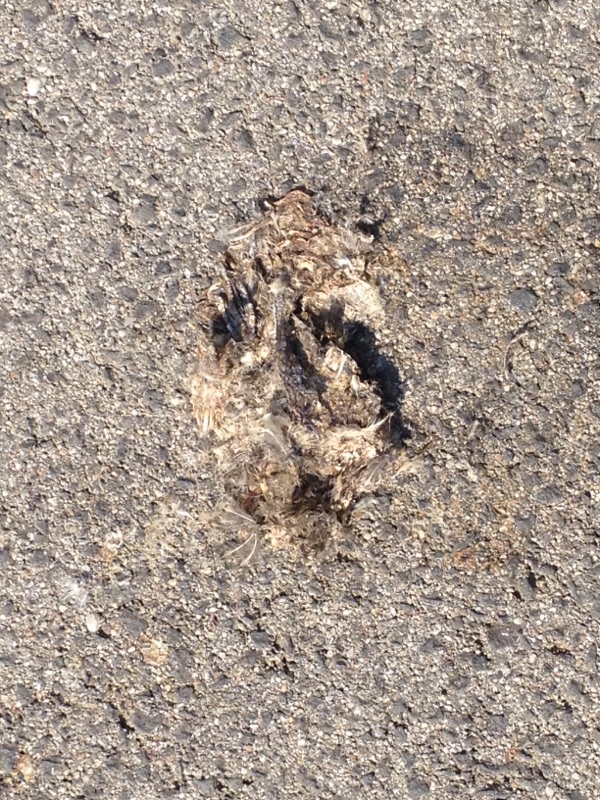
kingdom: Animalia
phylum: Chordata
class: Aves
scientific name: Aves
